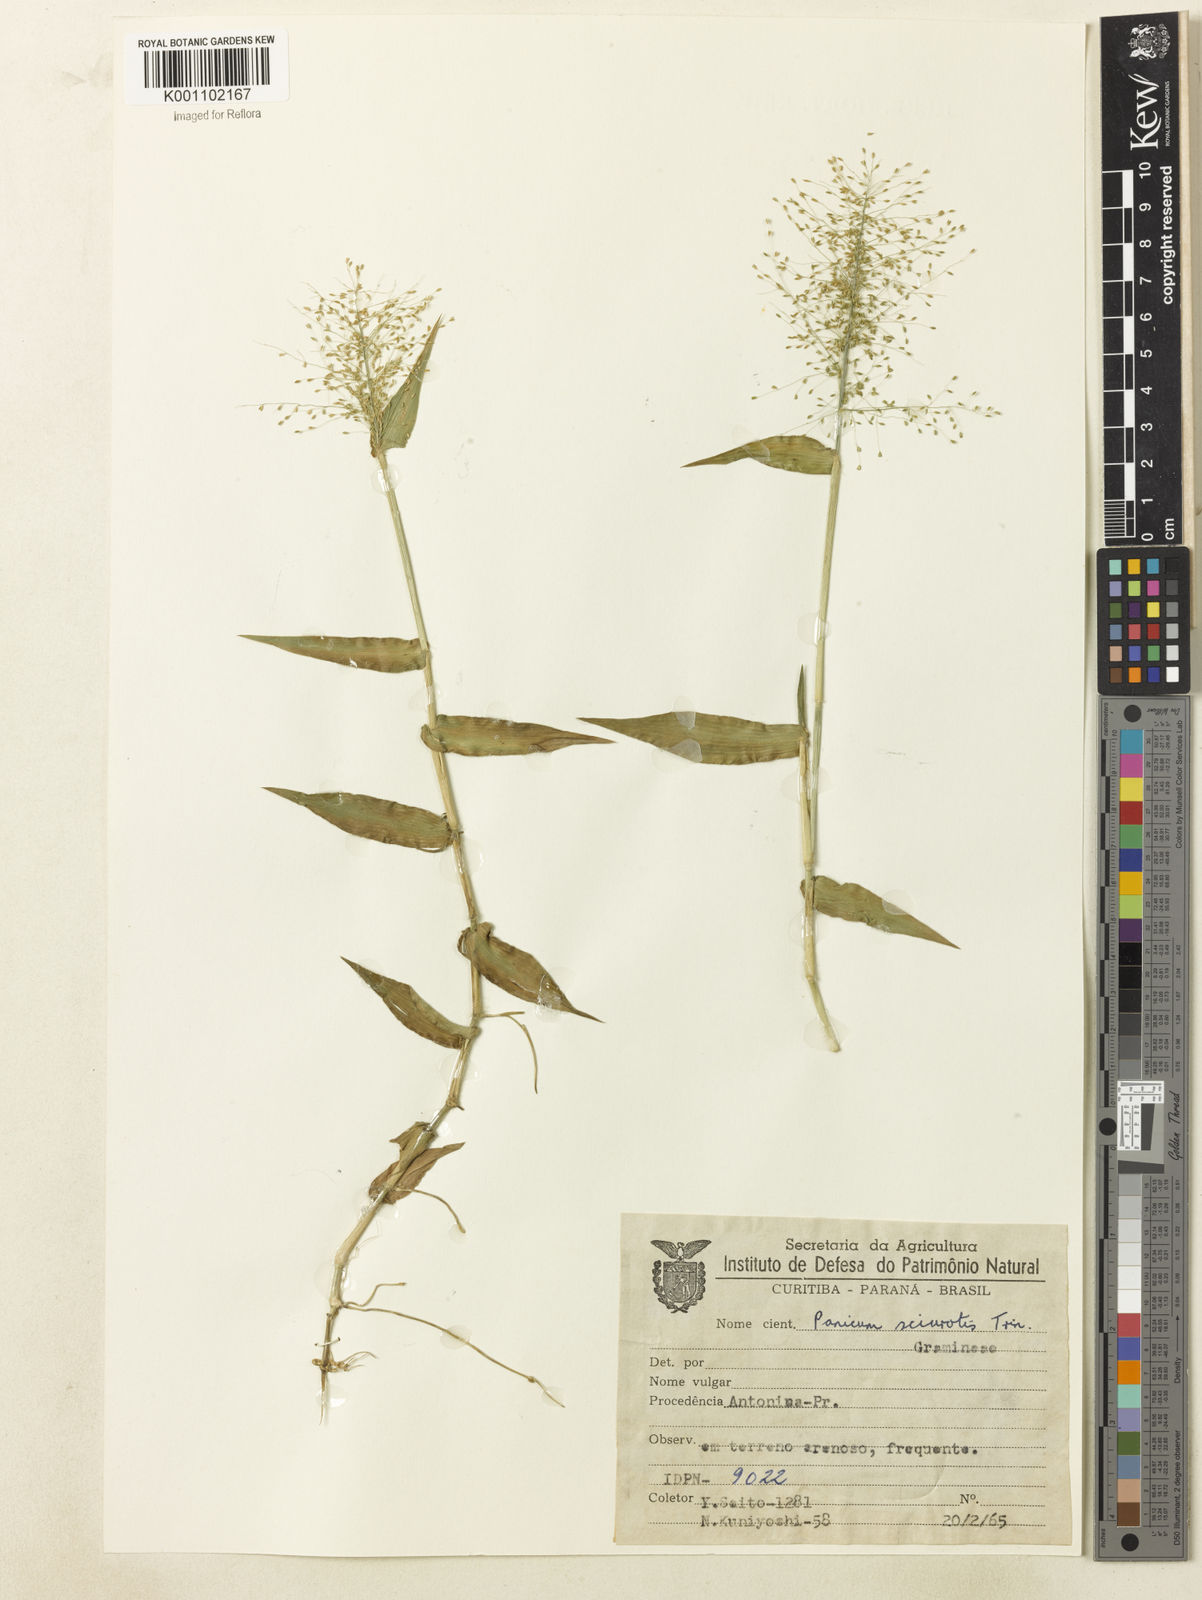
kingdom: Plantae
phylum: Tracheophyta
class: Liliopsida
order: Poales
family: Poaceae
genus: Dichanthelium
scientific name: Dichanthelium sciurotoides
